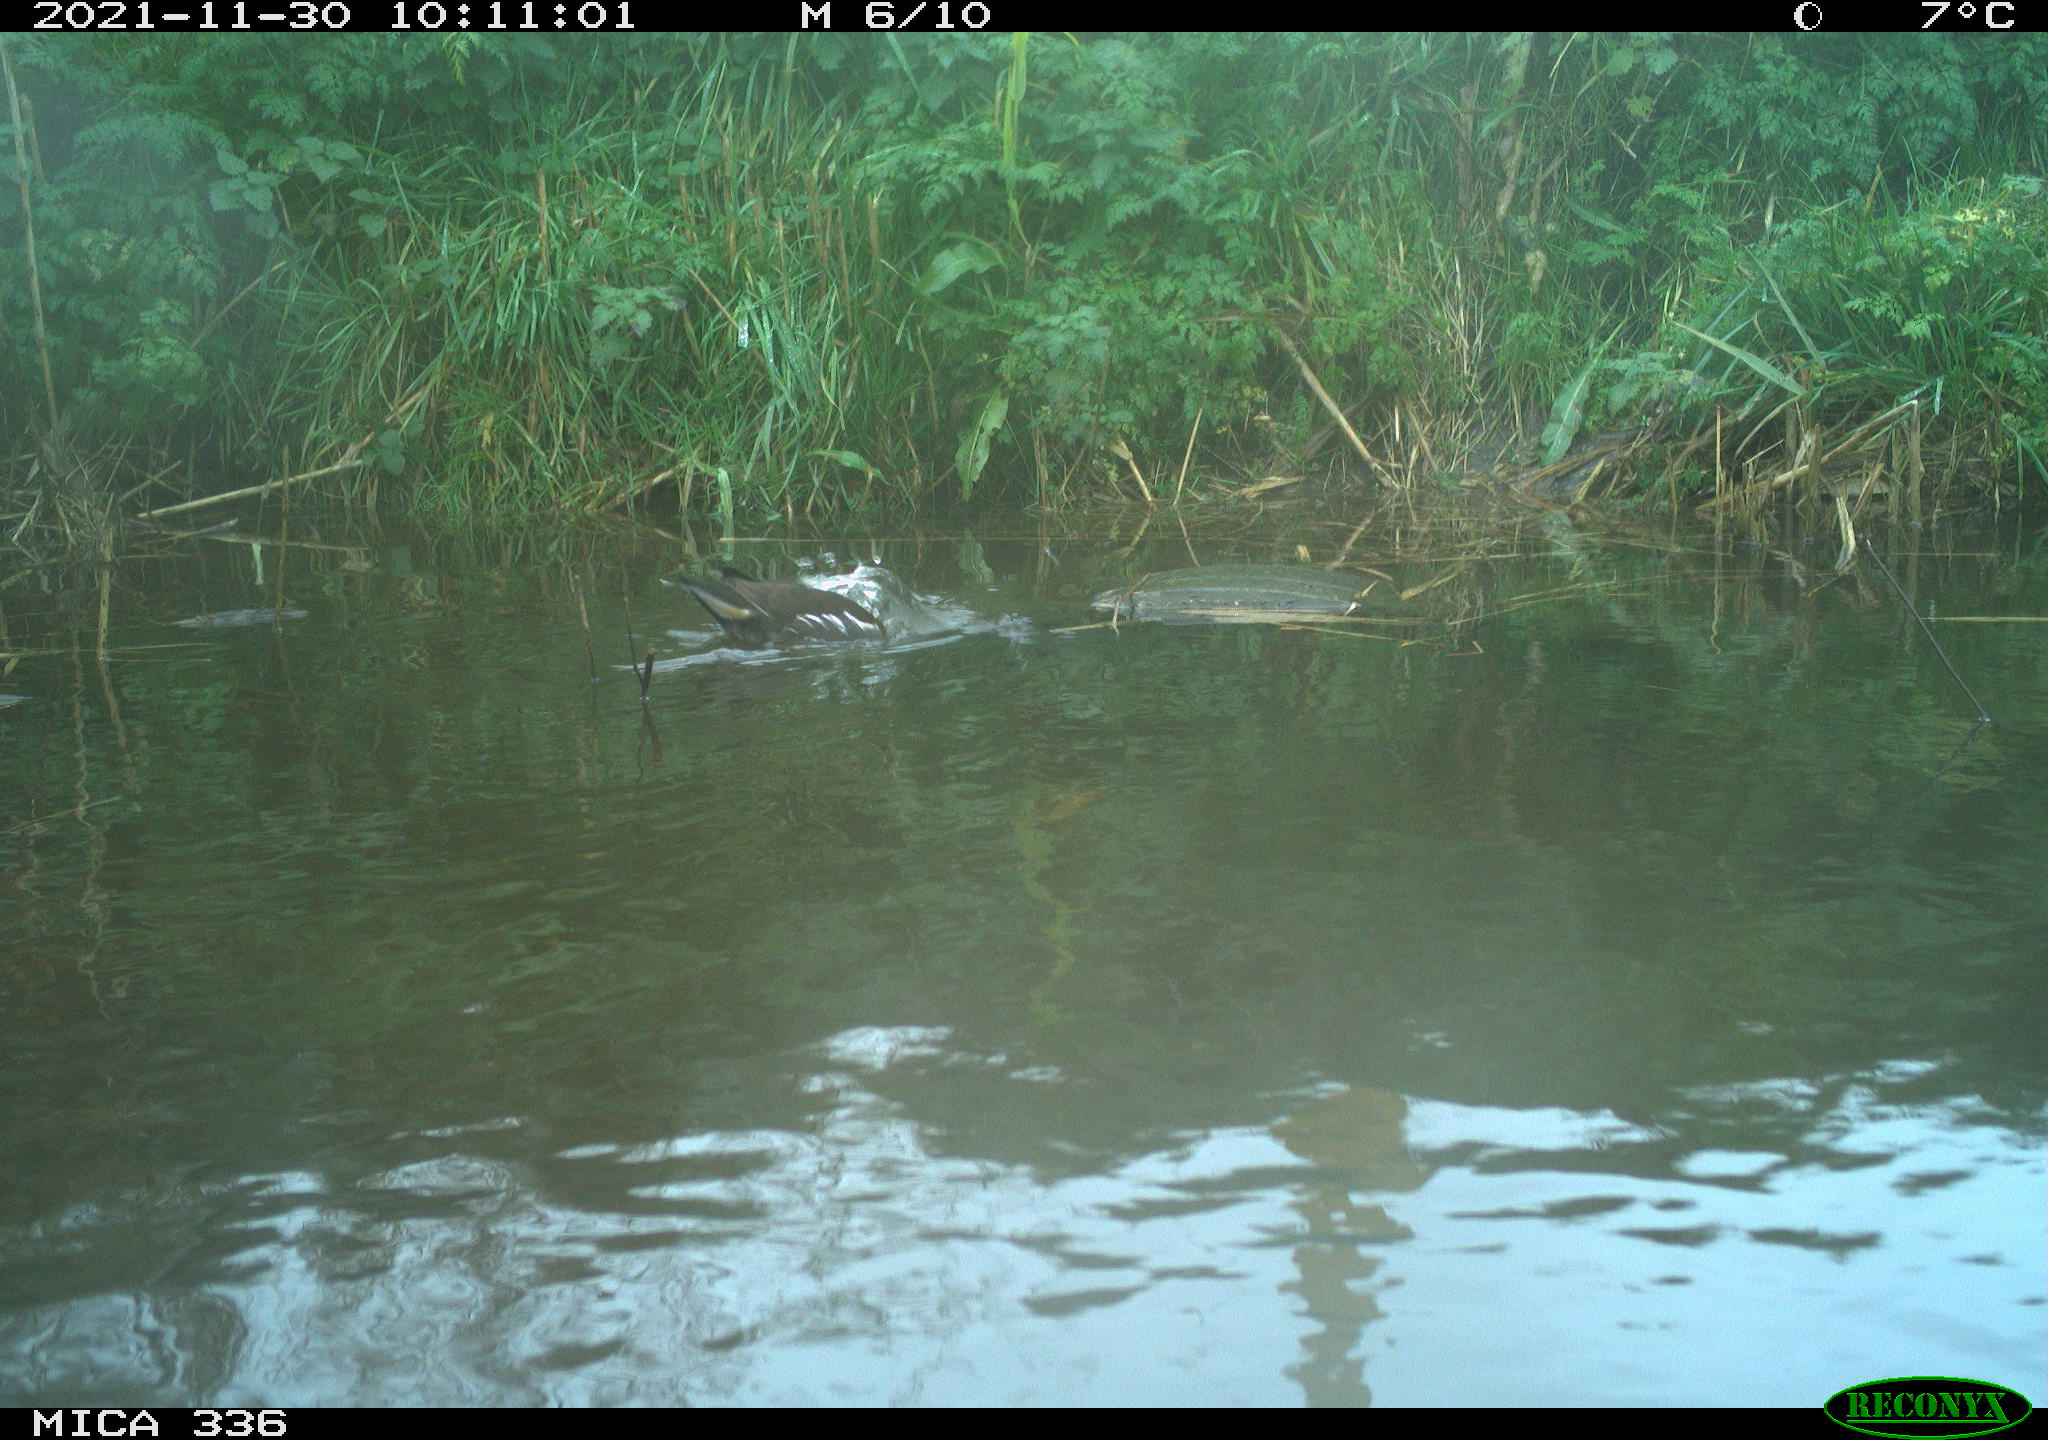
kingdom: Animalia
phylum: Chordata
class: Aves
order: Gruiformes
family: Rallidae
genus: Gallinula
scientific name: Gallinula chloropus
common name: Common moorhen
